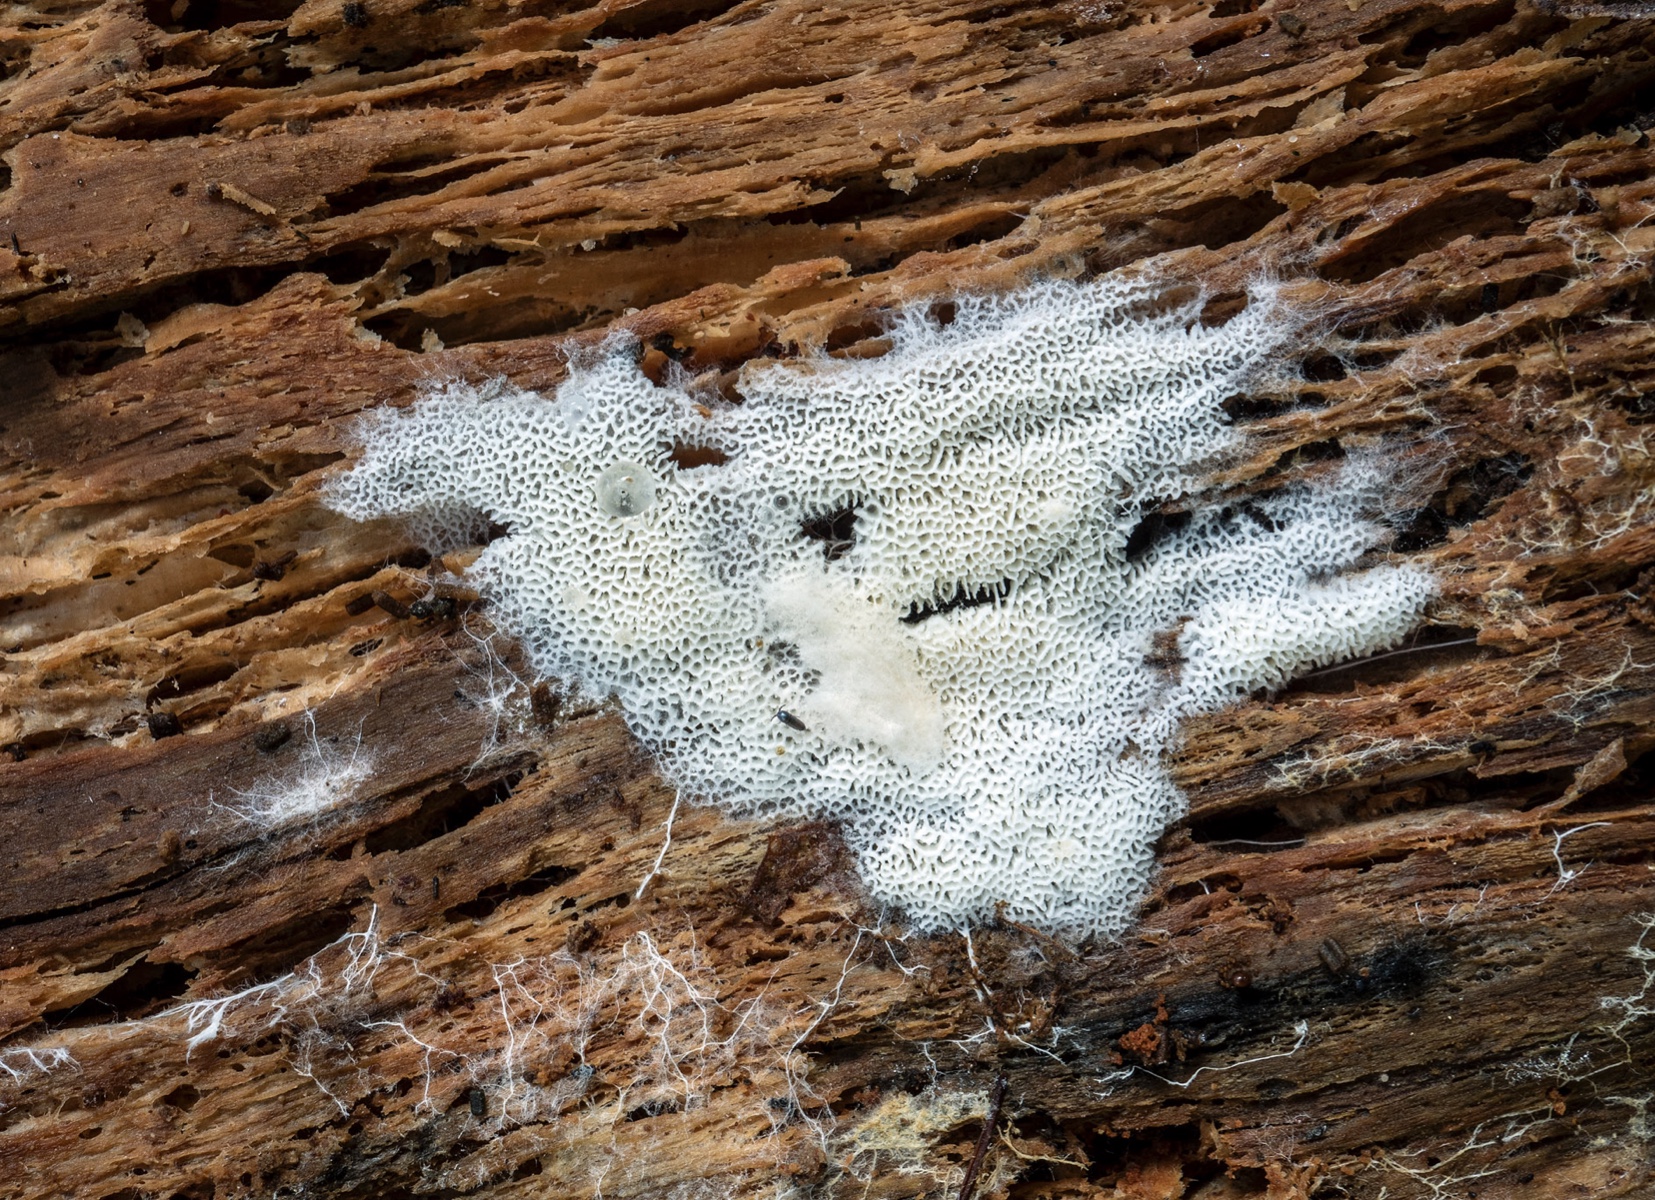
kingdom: Fungi
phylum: Basidiomycota
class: Agaricomycetes
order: Trechisporales
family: Sistotremataceae
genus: Trechispora
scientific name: Trechispora hymenocystis
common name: poret vathinde
